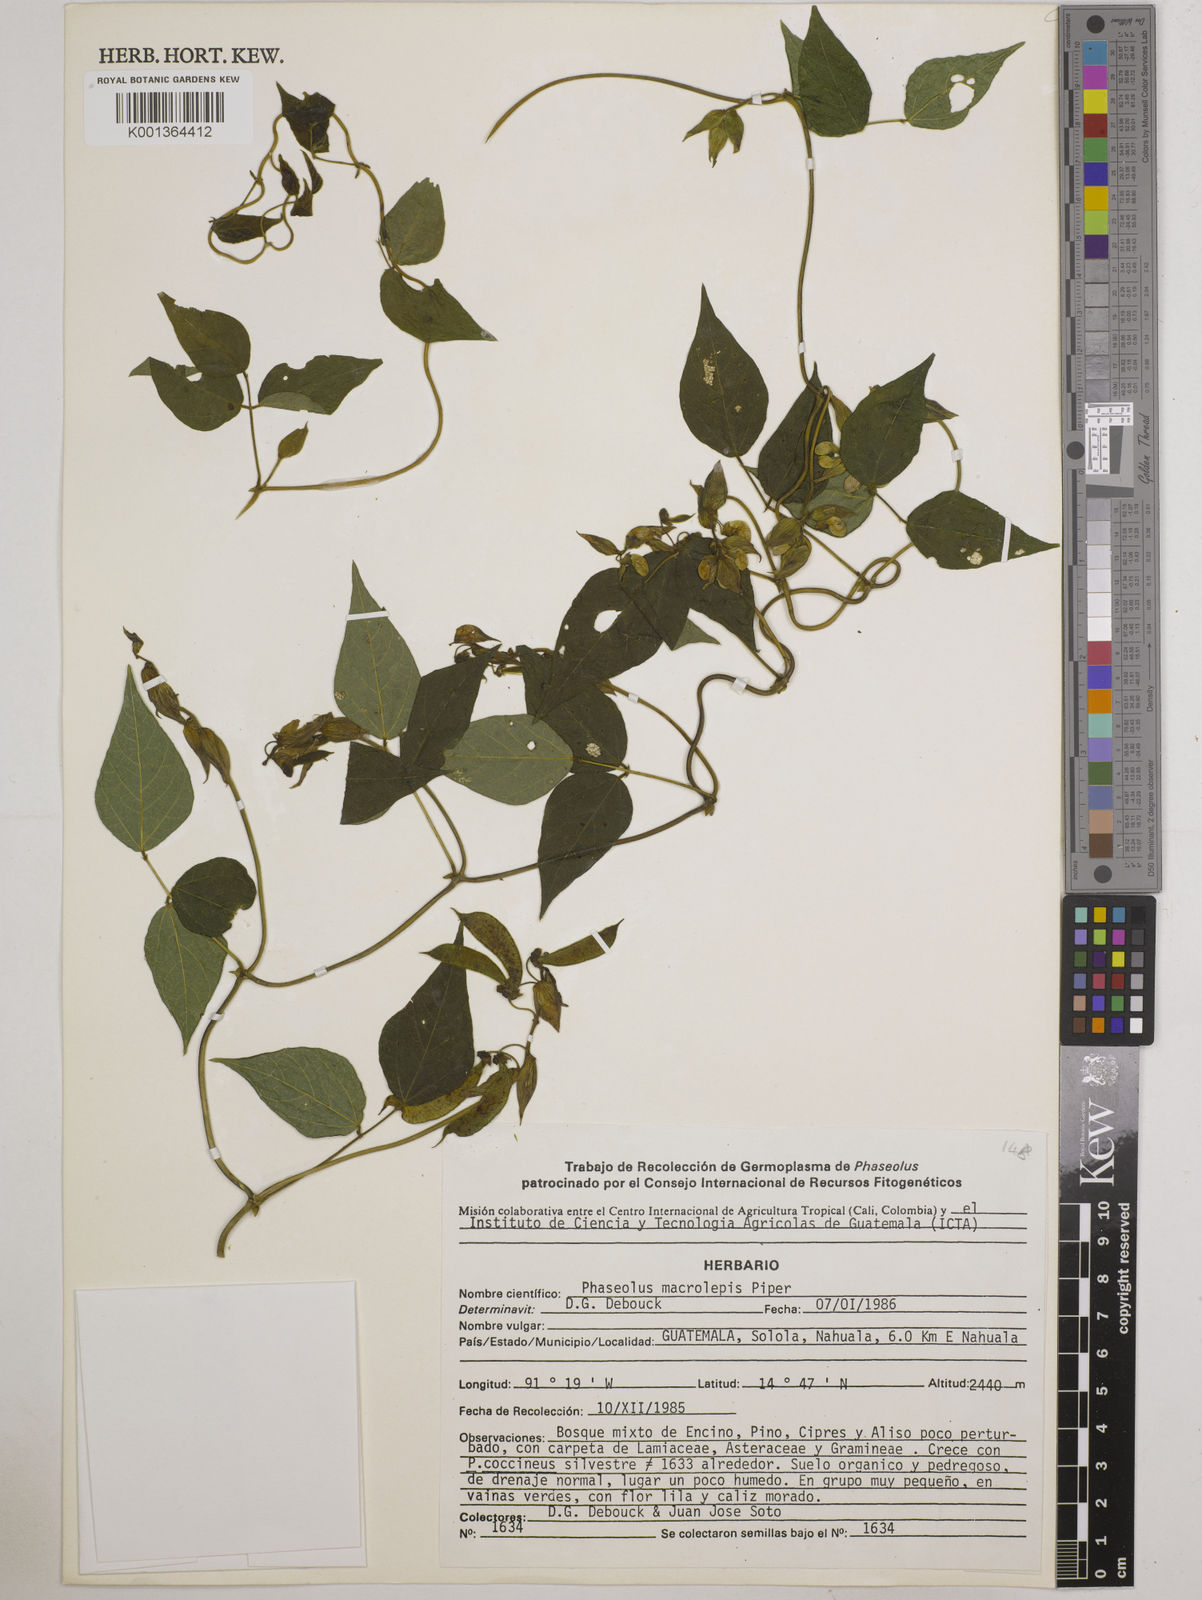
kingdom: Plantae
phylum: Tracheophyta
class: Magnoliopsida
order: Fabales
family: Fabaceae
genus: Phaseolus
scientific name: Phaseolus macrolepis
